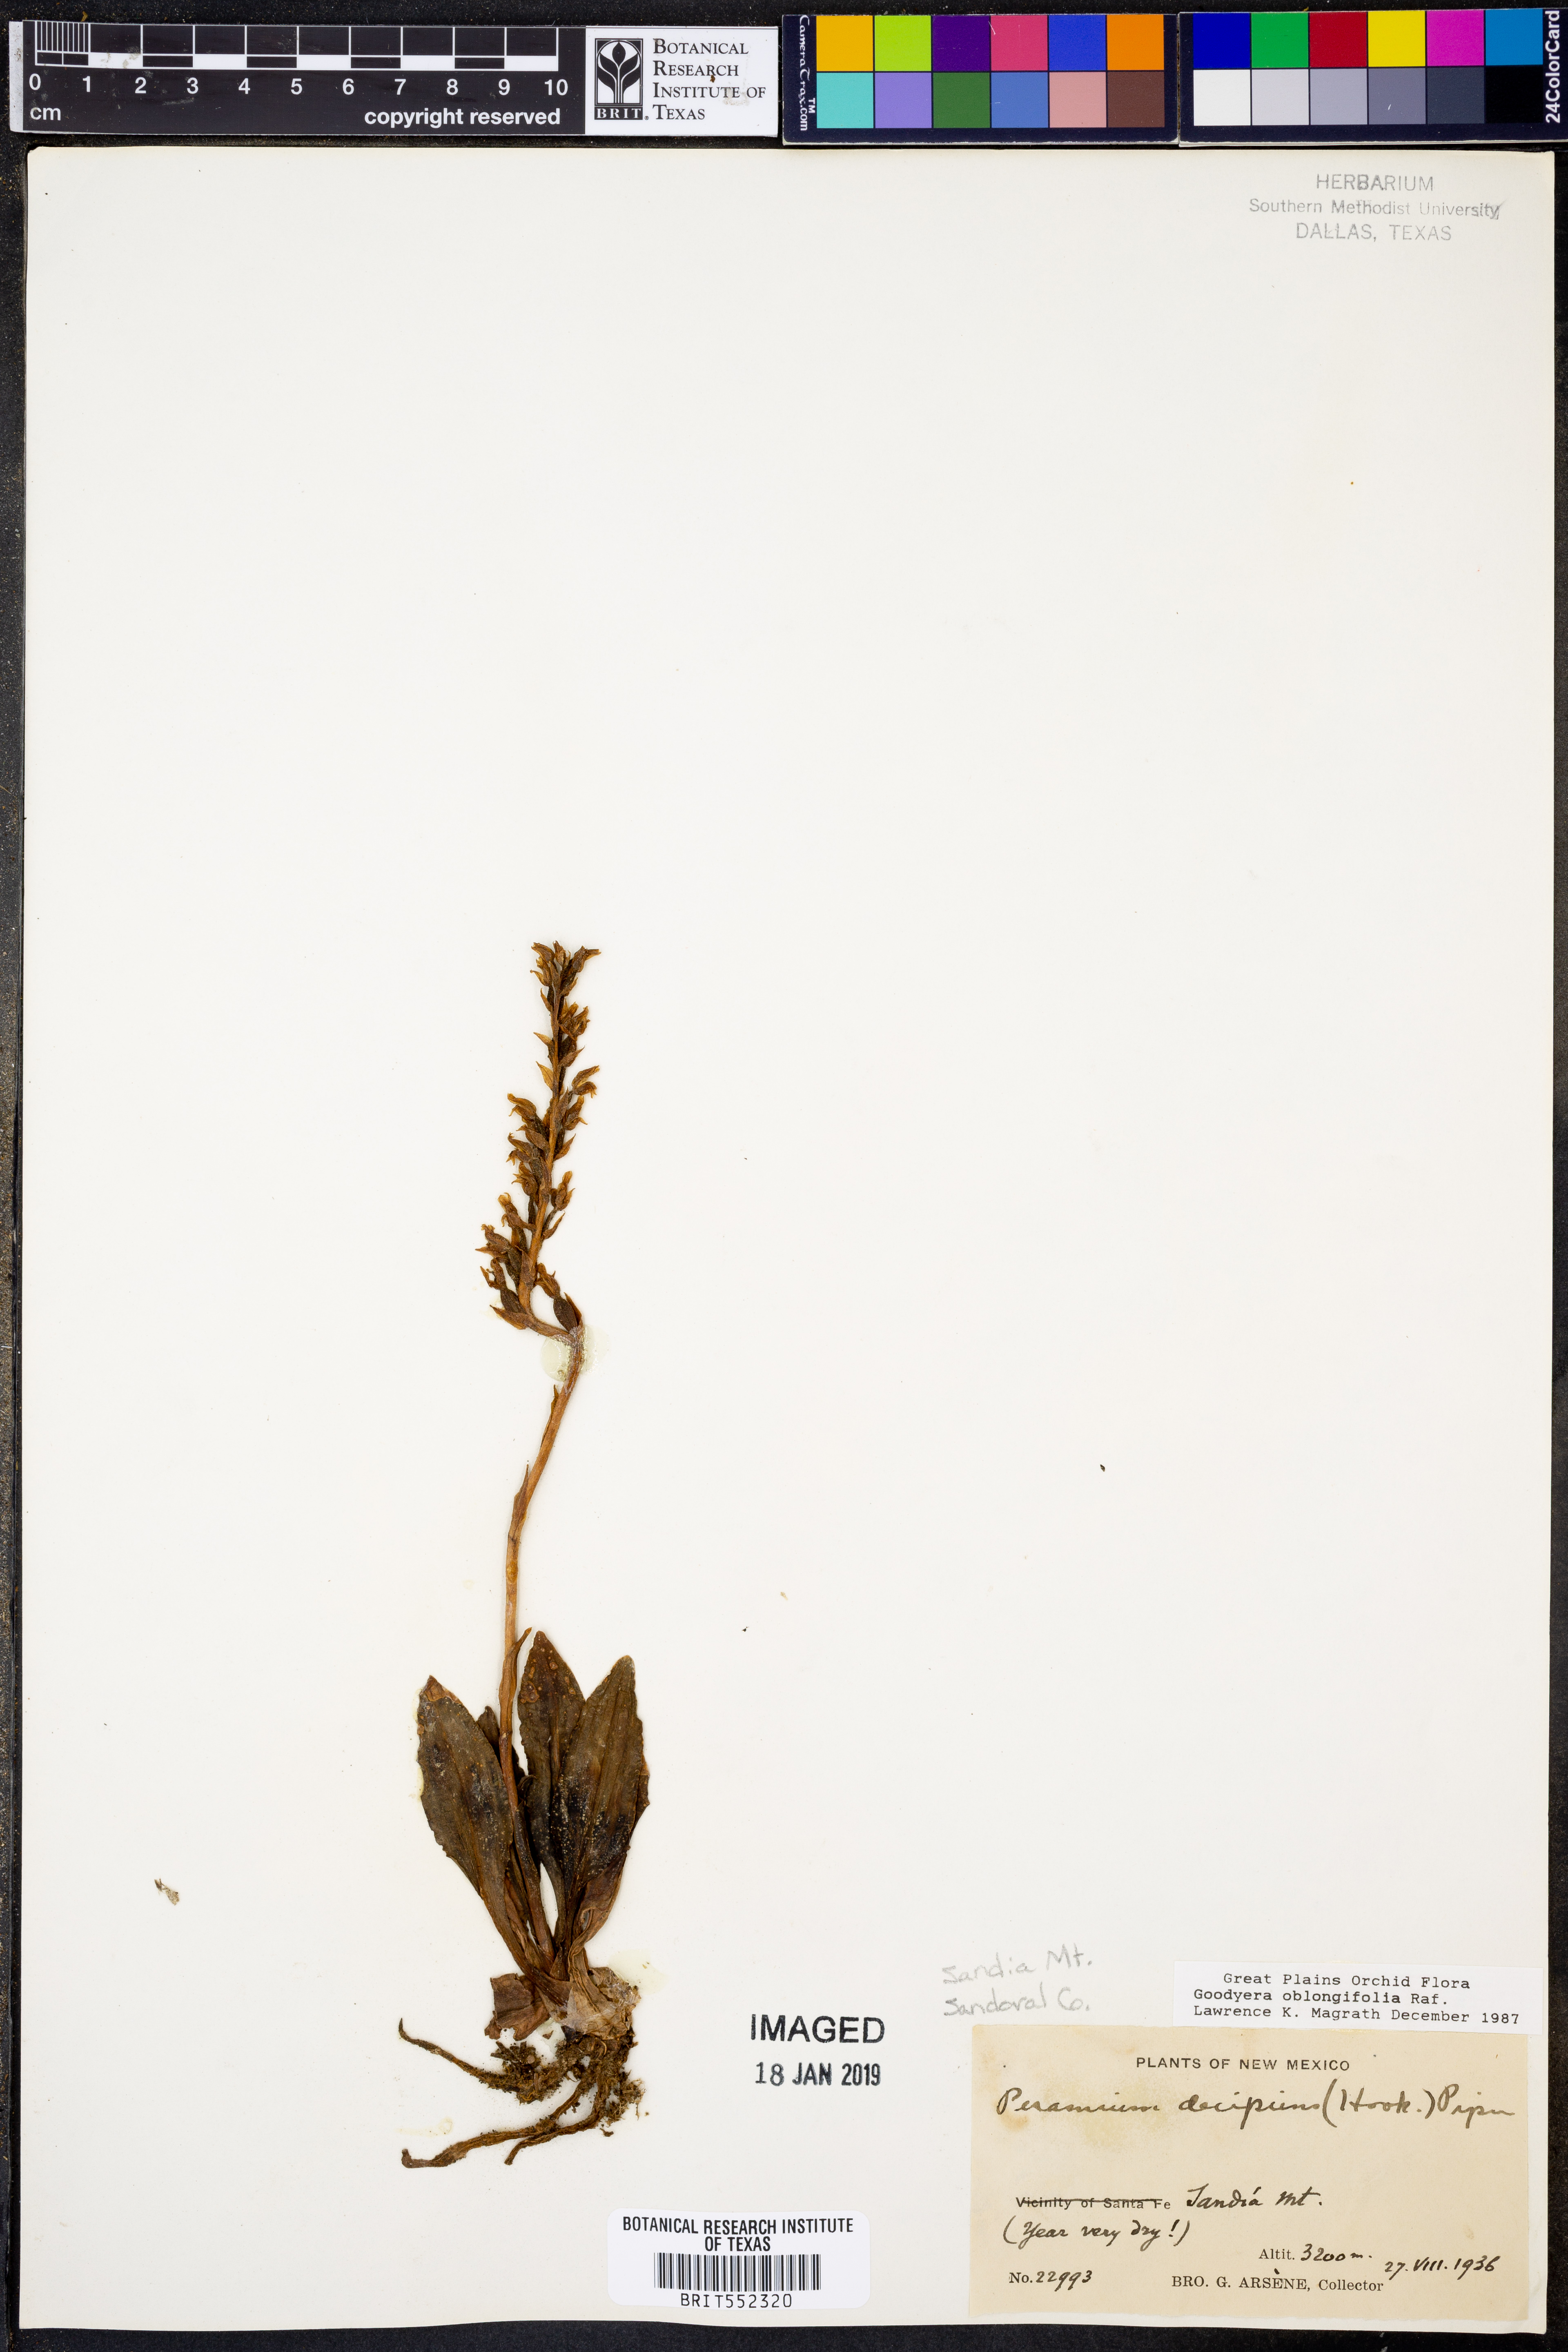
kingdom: Plantae
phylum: Tracheophyta
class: Liliopsida
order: Asparagales
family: Orchidaceae
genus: Goodyera
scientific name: Goodyera oblongifolia
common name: Giant rattlesnake-plantain
